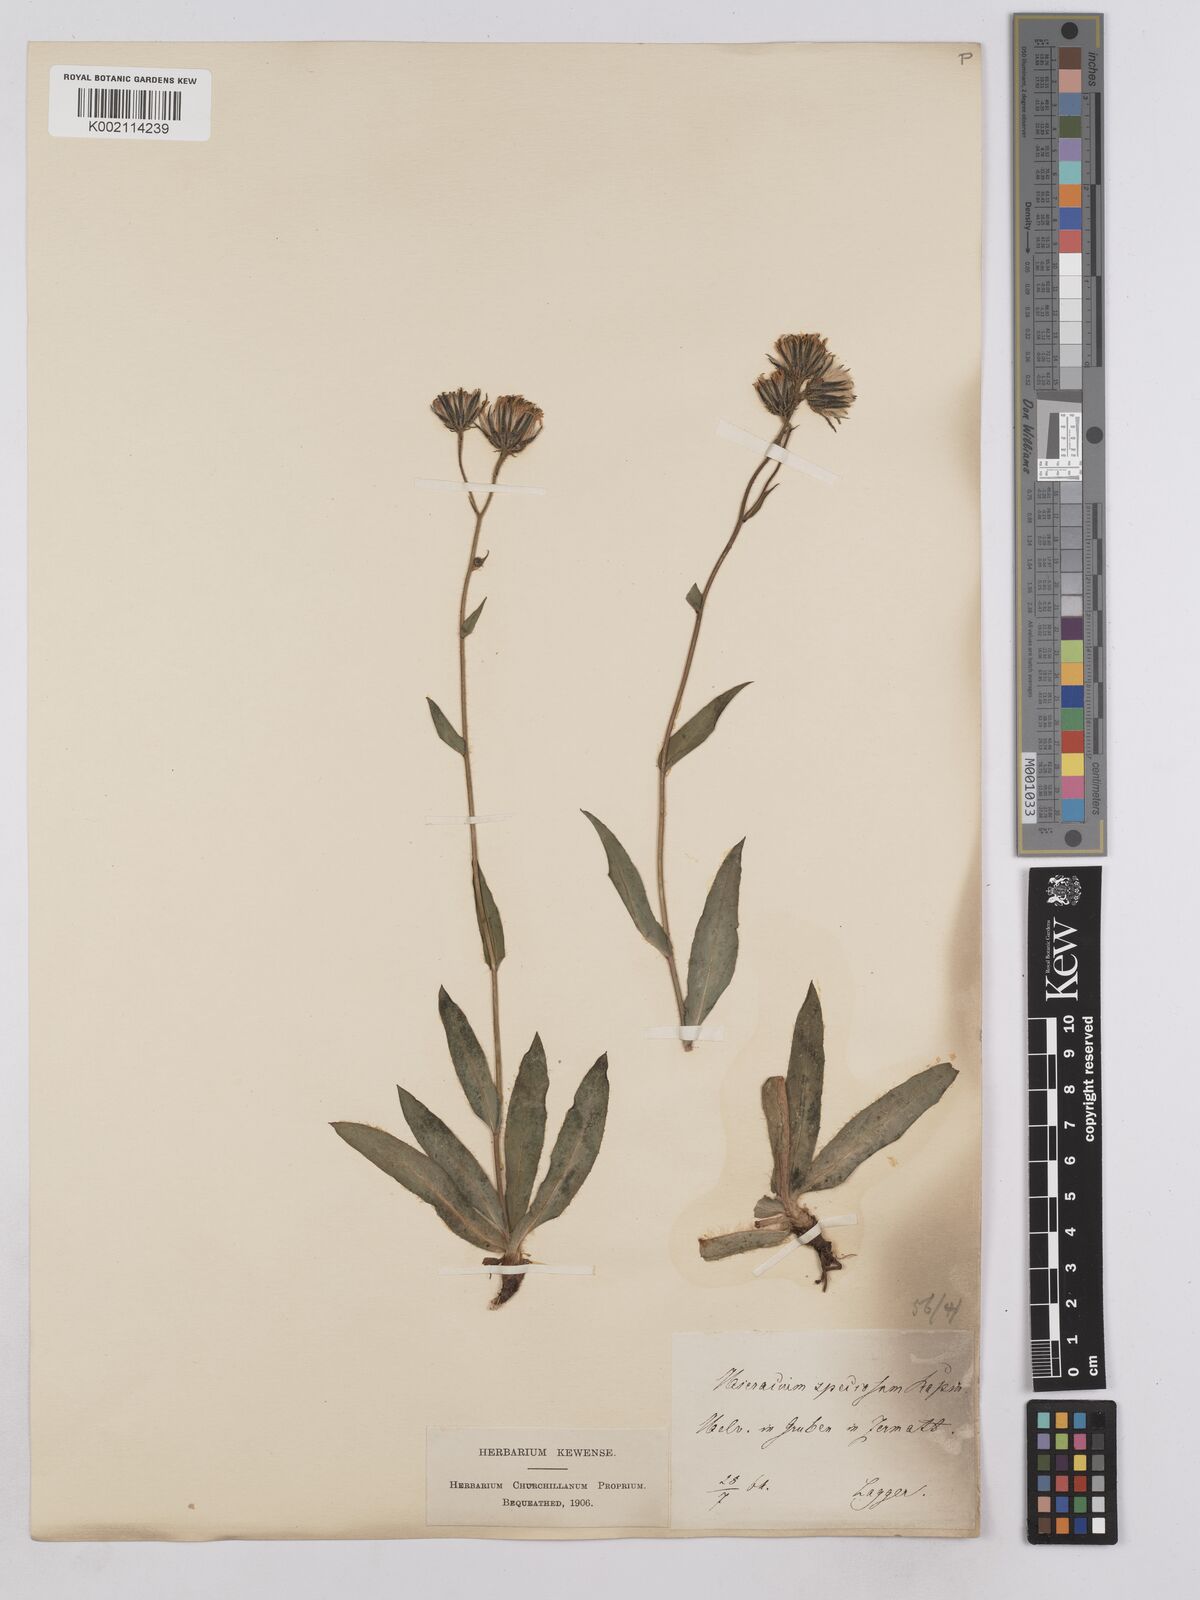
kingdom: Plantae
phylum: Tracheophyta
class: Magnoliopsida
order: Asterales
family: Asteraceae
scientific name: Asteraceae
